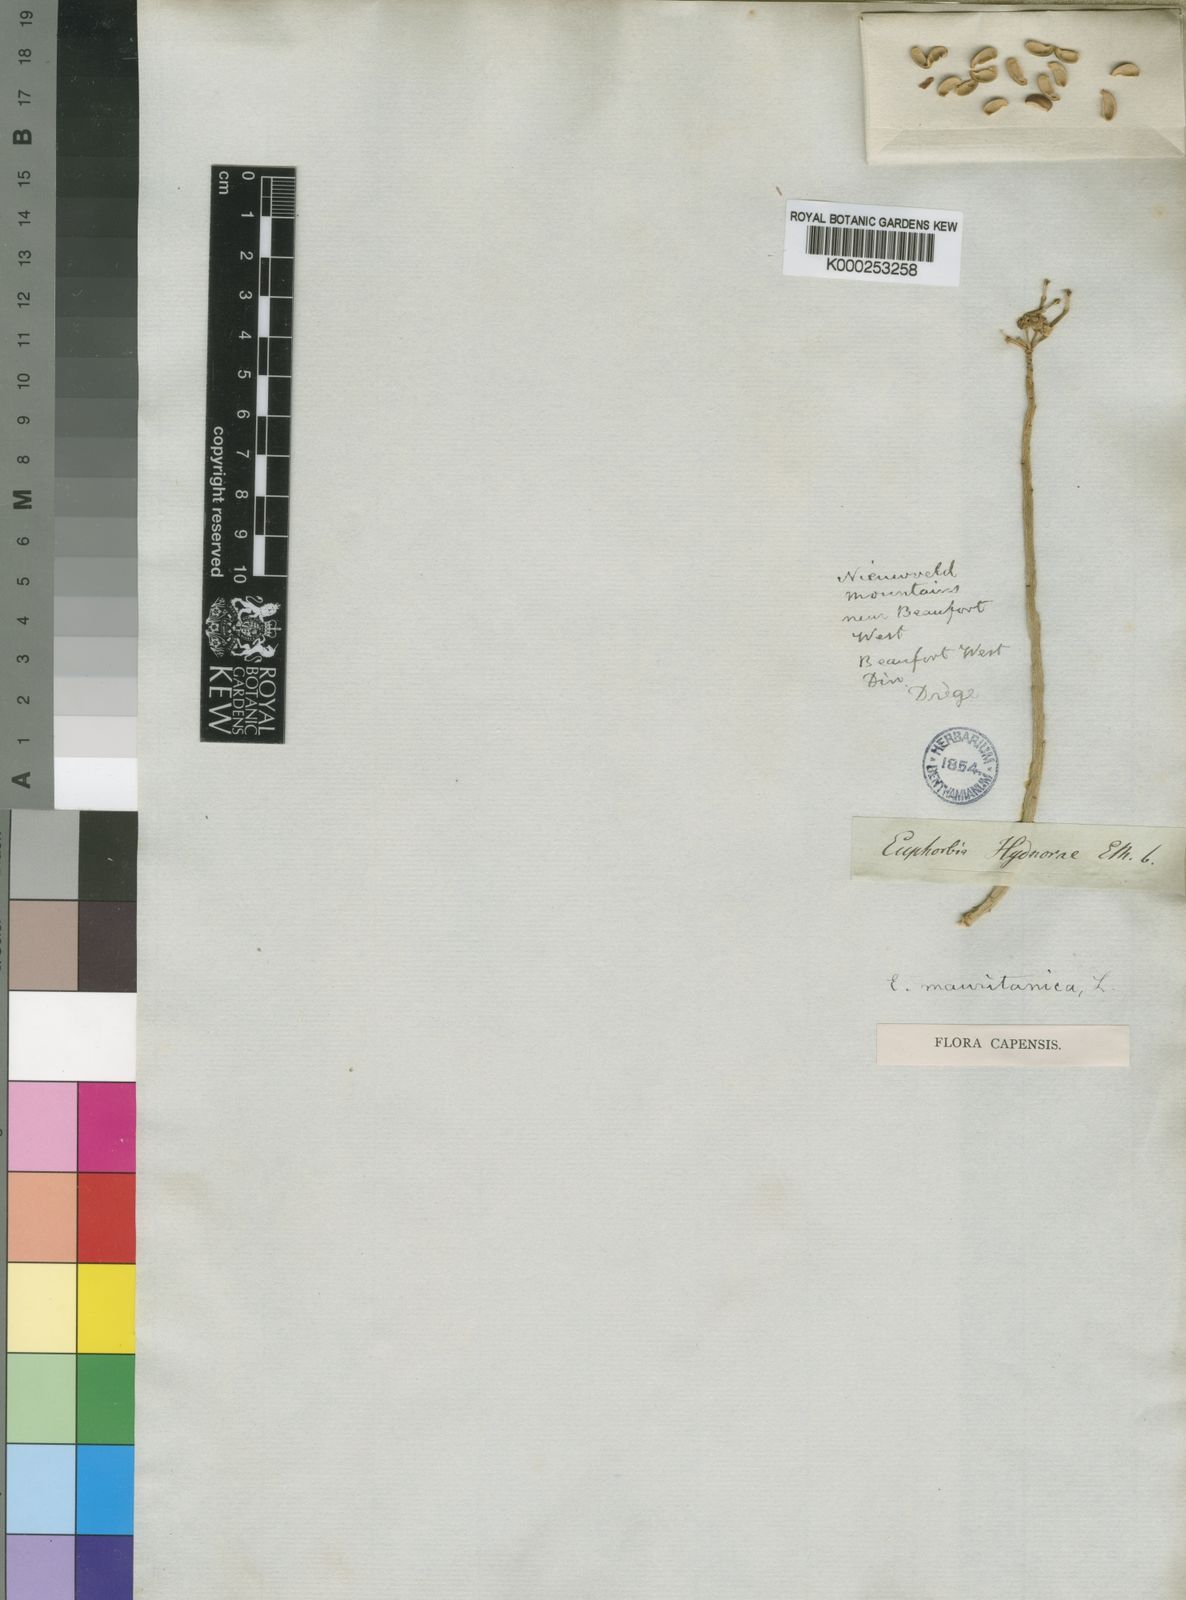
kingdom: Plantae
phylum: Tracheophyta
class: Magnoliopsida
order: Malpighiales
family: Euphorbiaceae
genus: Euphorbia
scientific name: Euphorbia mauritanica
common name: Jackal's-food
